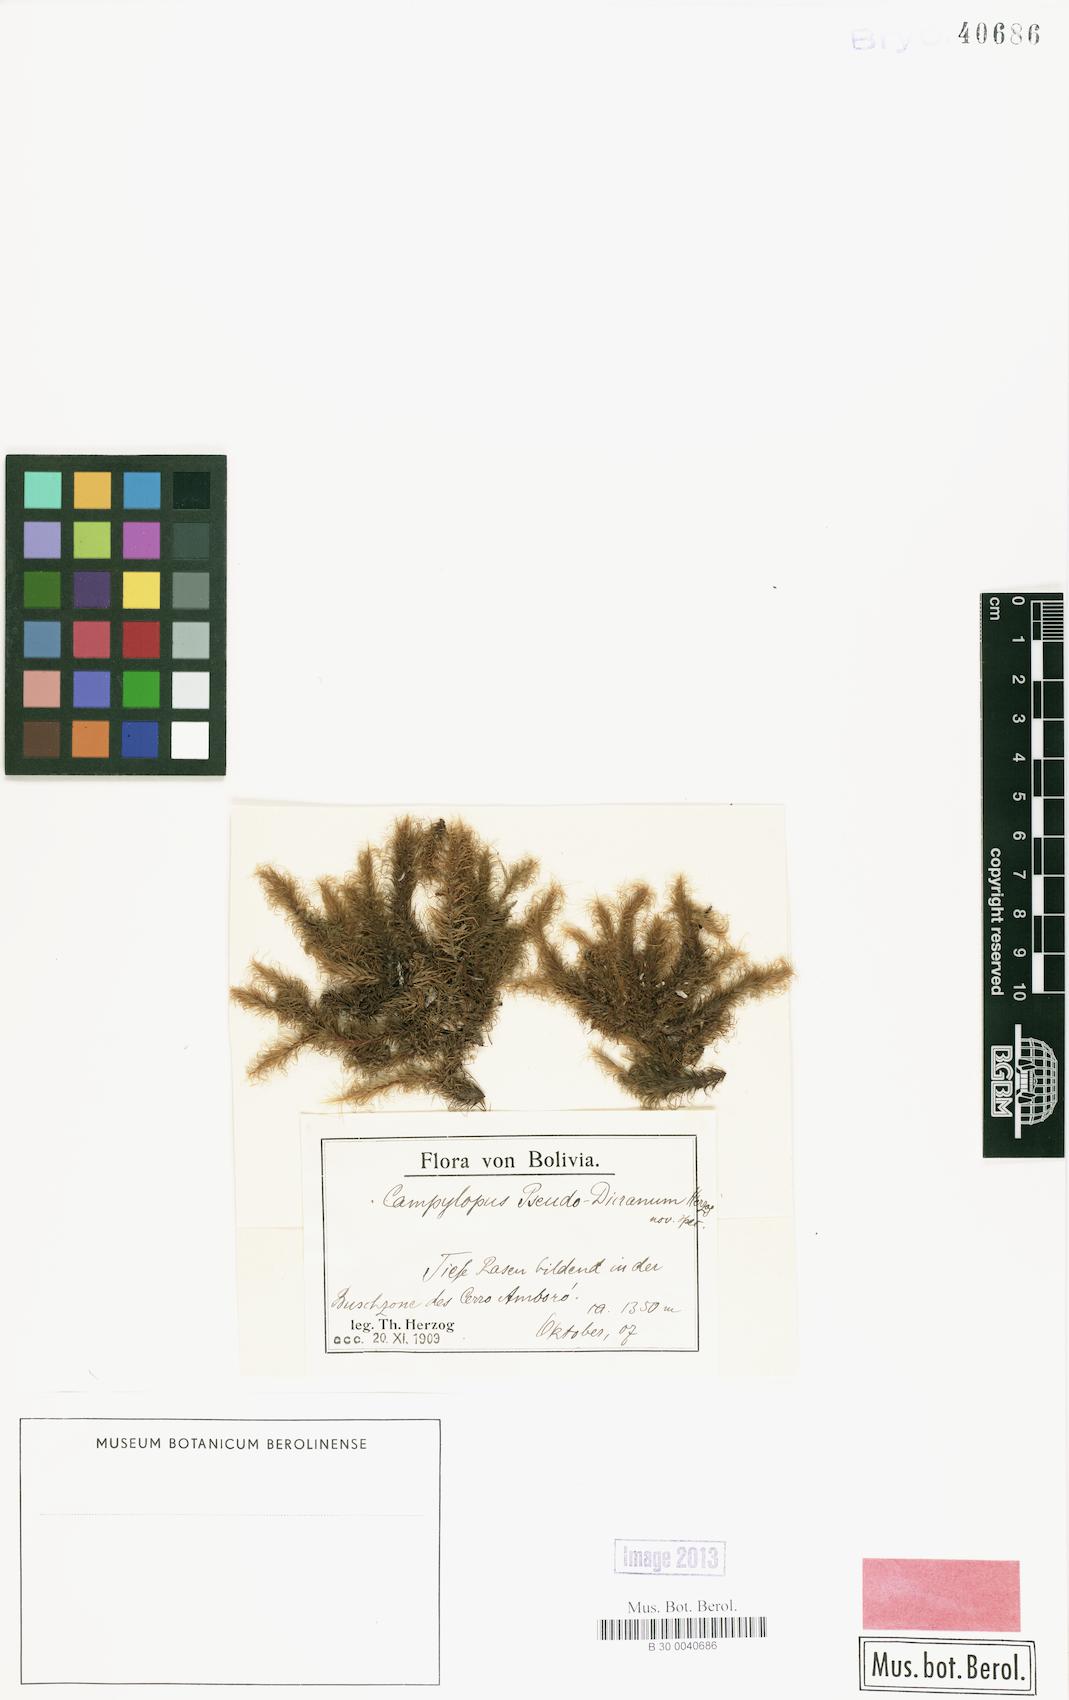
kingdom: Plantae
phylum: Bryophyta
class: Bryopsida
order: Dicranales
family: Leucobryaceae
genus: Campylopus
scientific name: Campylopus lamellinervis
